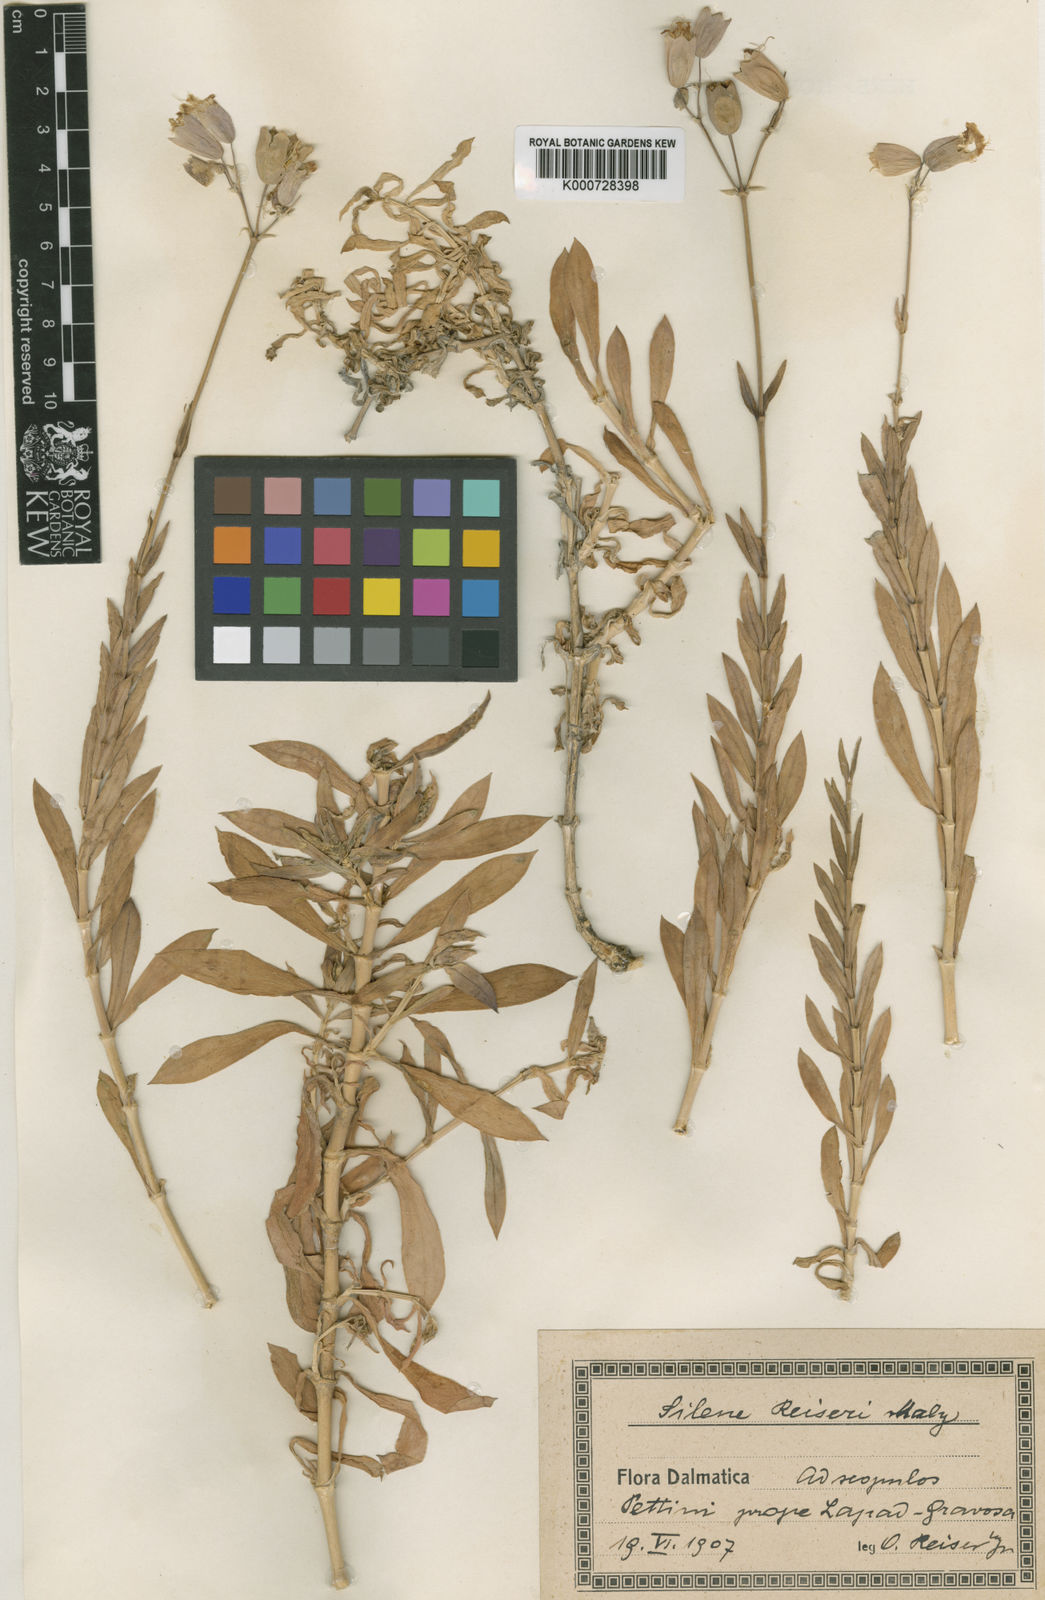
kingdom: Plantae
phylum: Tracheophyta
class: Magnoliopsida
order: Caryophyllales
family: Caryophyllaceae
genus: Silene
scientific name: Silene reiseri
